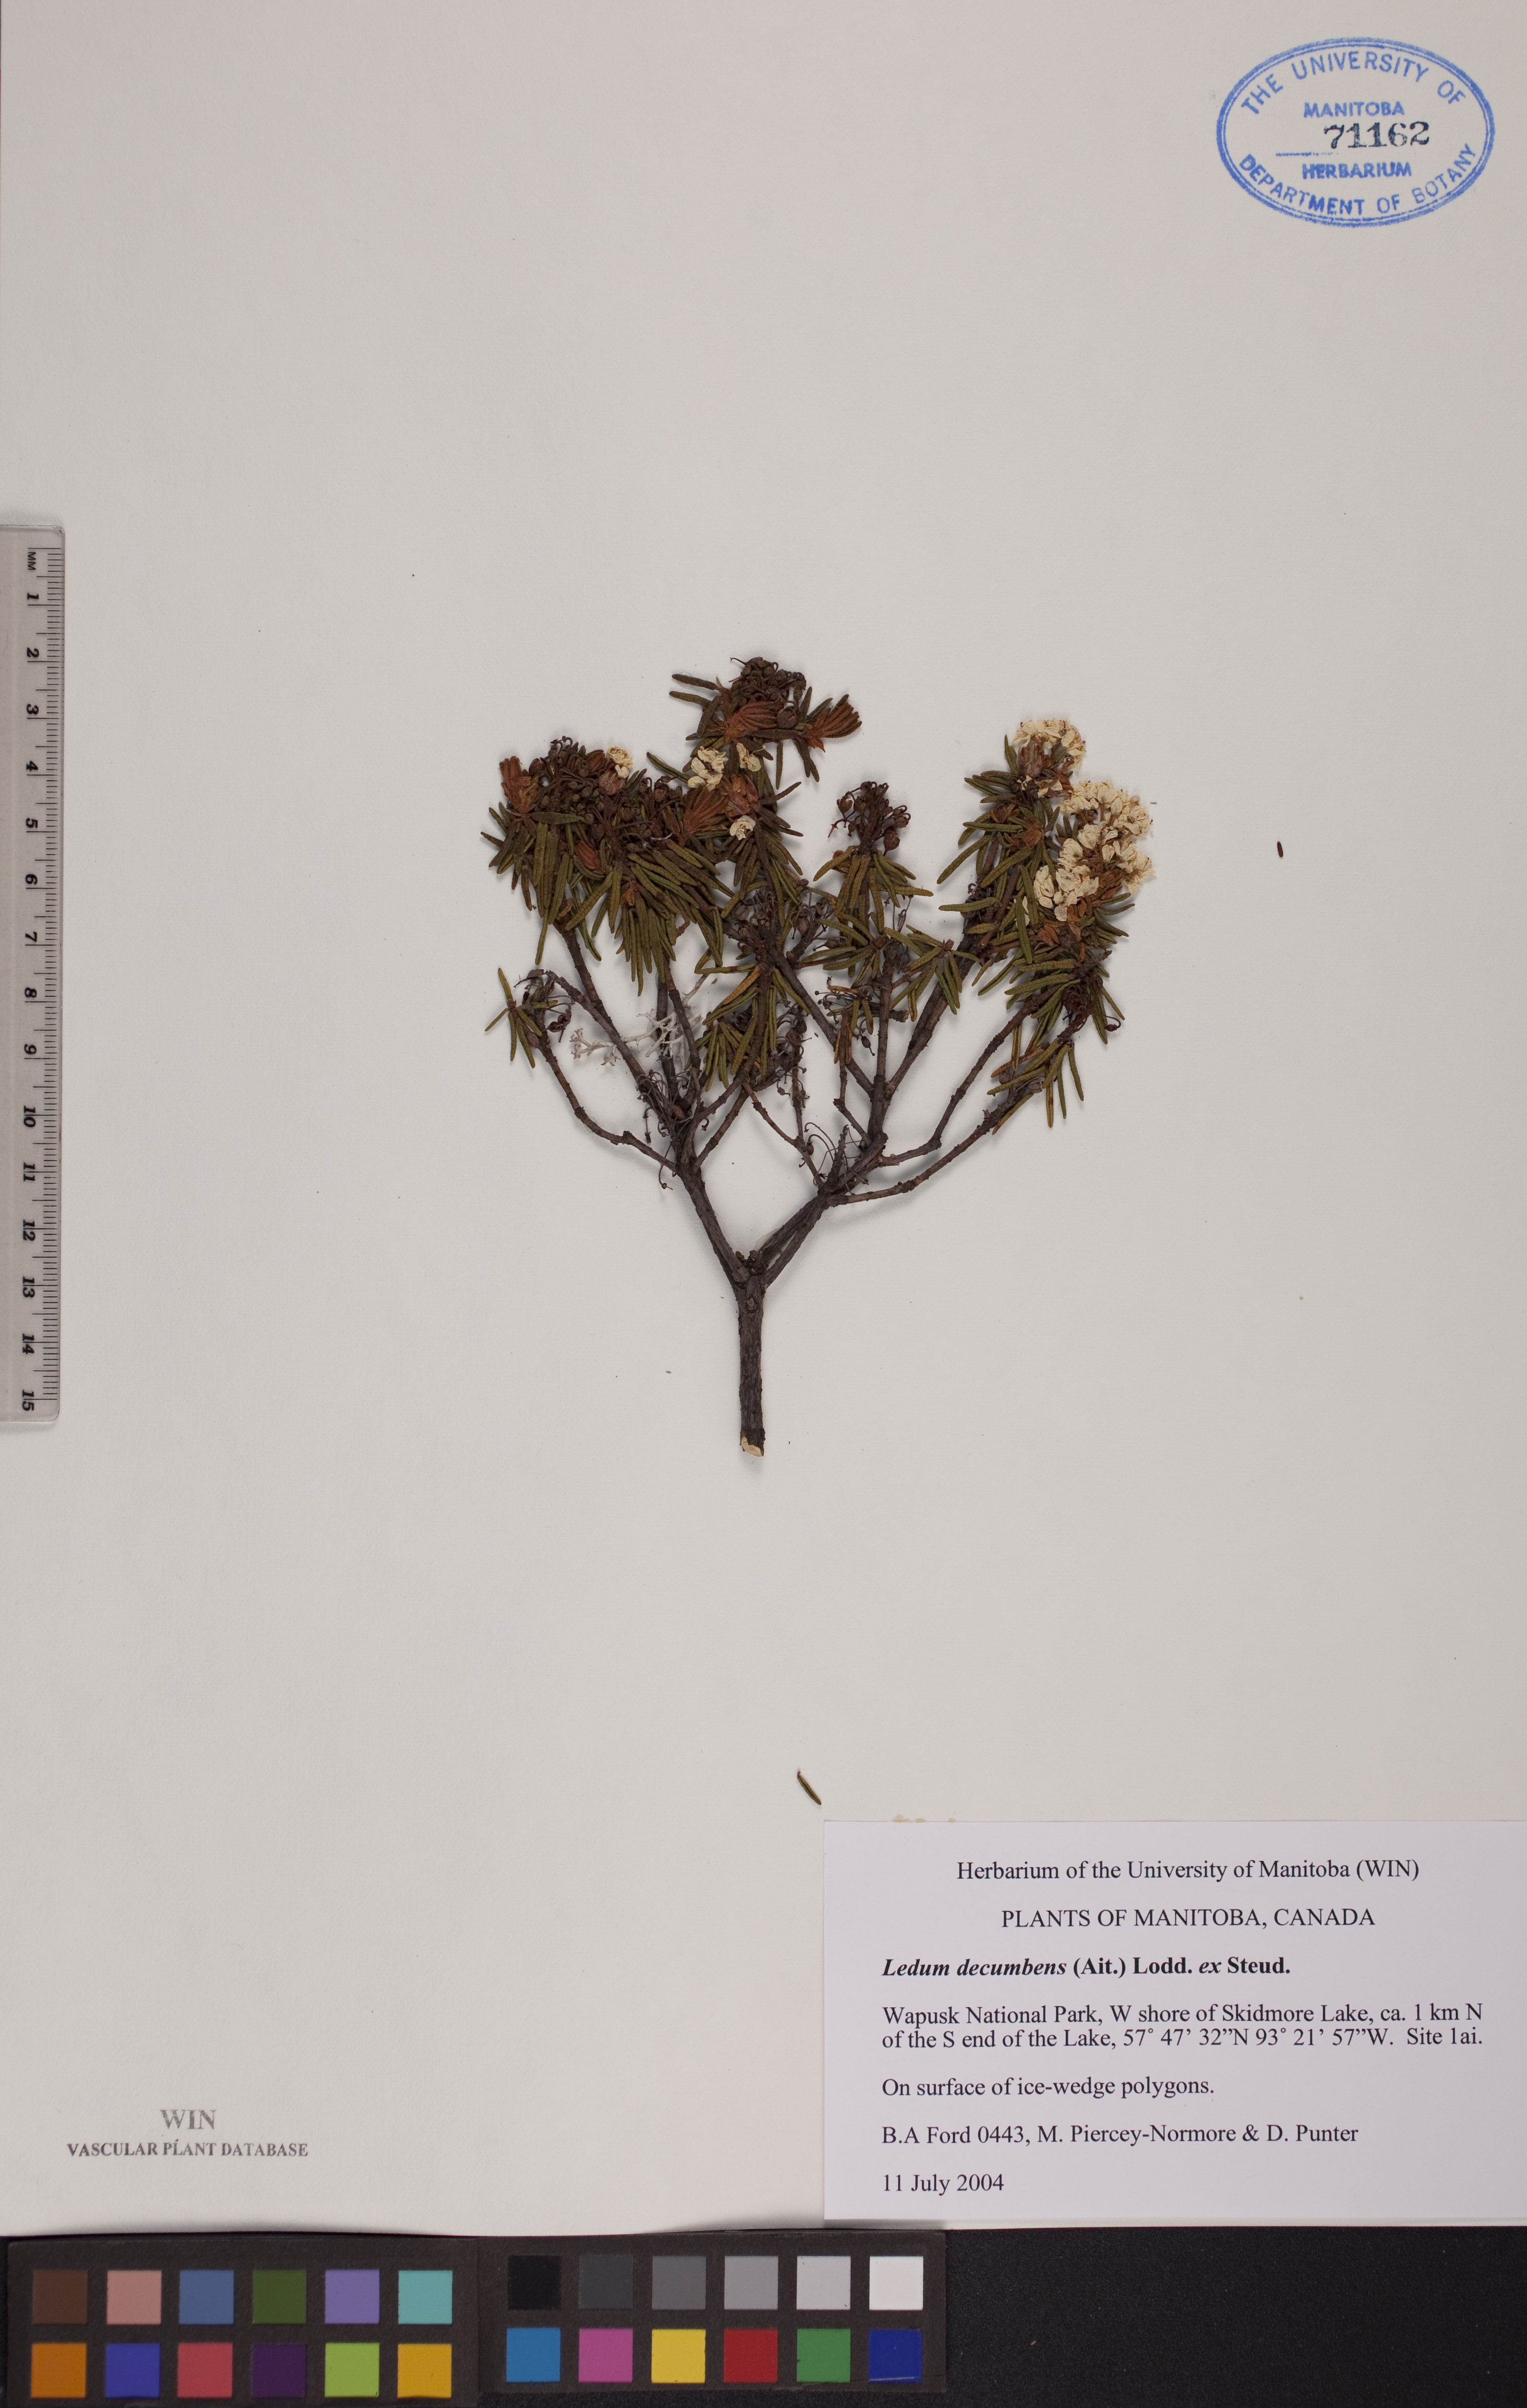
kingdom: Plantae
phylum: Tracheophyta
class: Magnoliopsida
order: Ericales
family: Ericaceae
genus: Rhododendron
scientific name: Rhododendron tomentosum
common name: Marsh labrador tea
